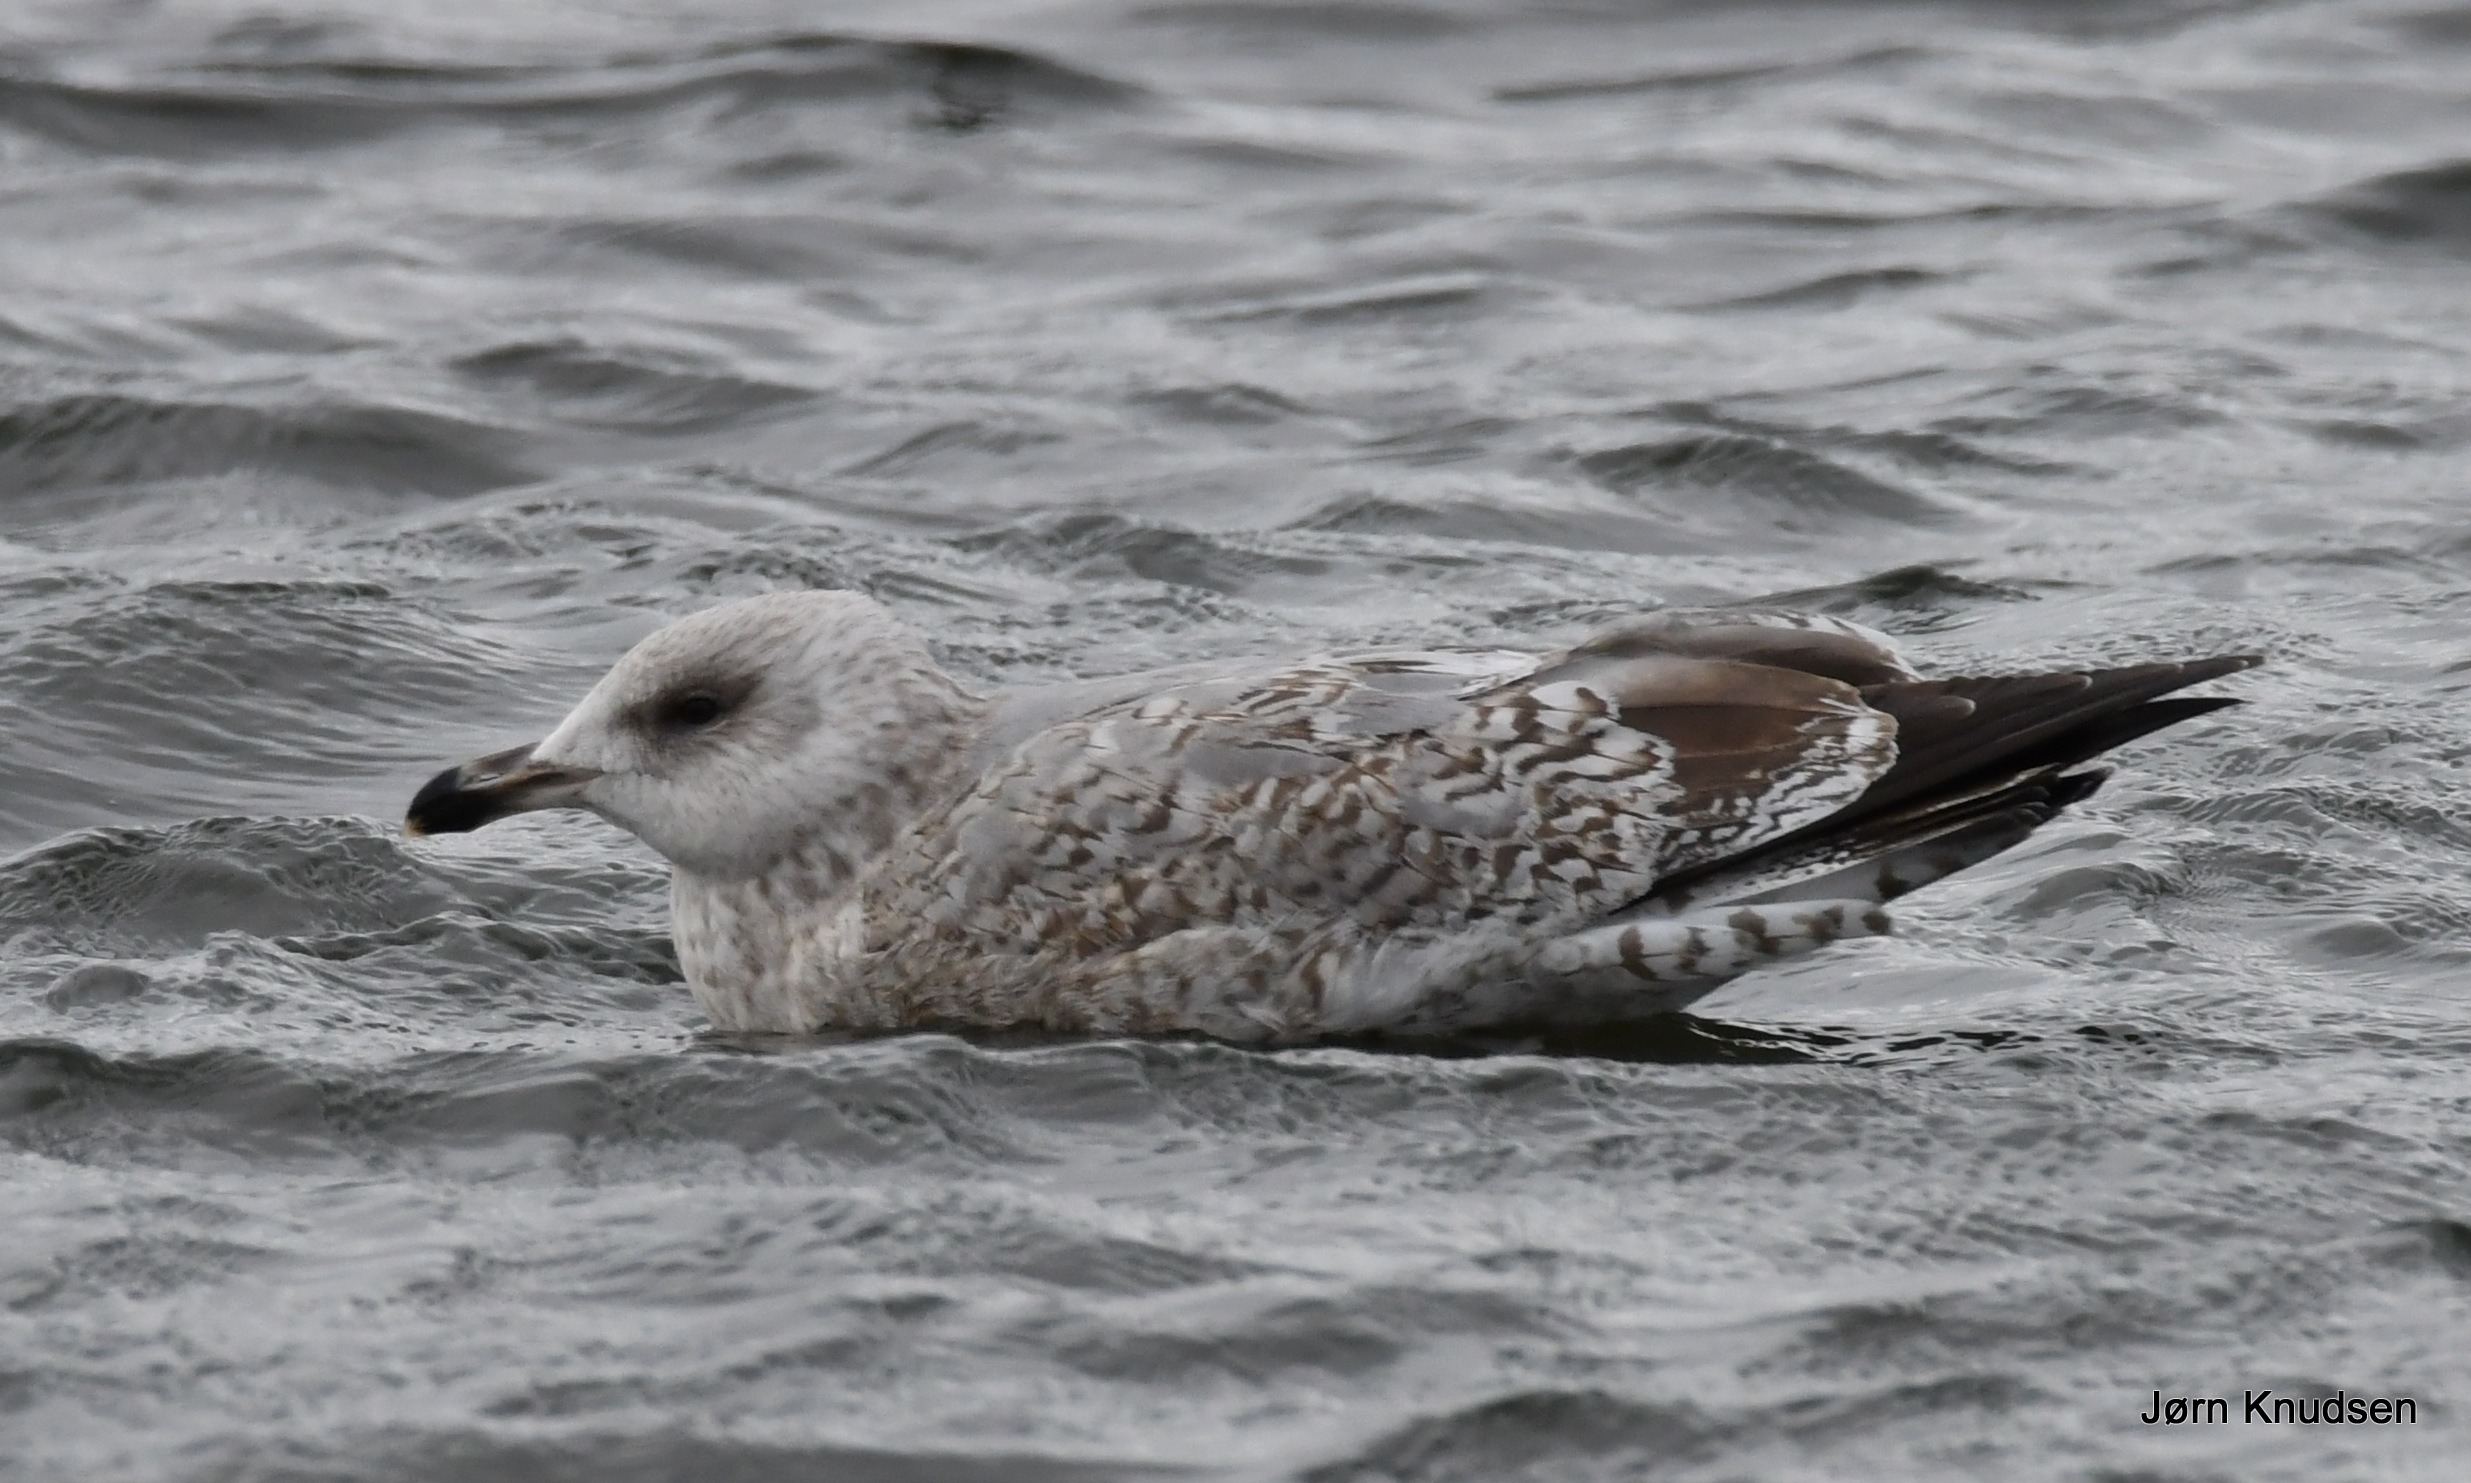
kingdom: Animalia
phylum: Chordata
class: Aves
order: Charadriiformes
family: Laridae
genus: Larus
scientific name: Larus argentatus
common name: Sølvmåge
